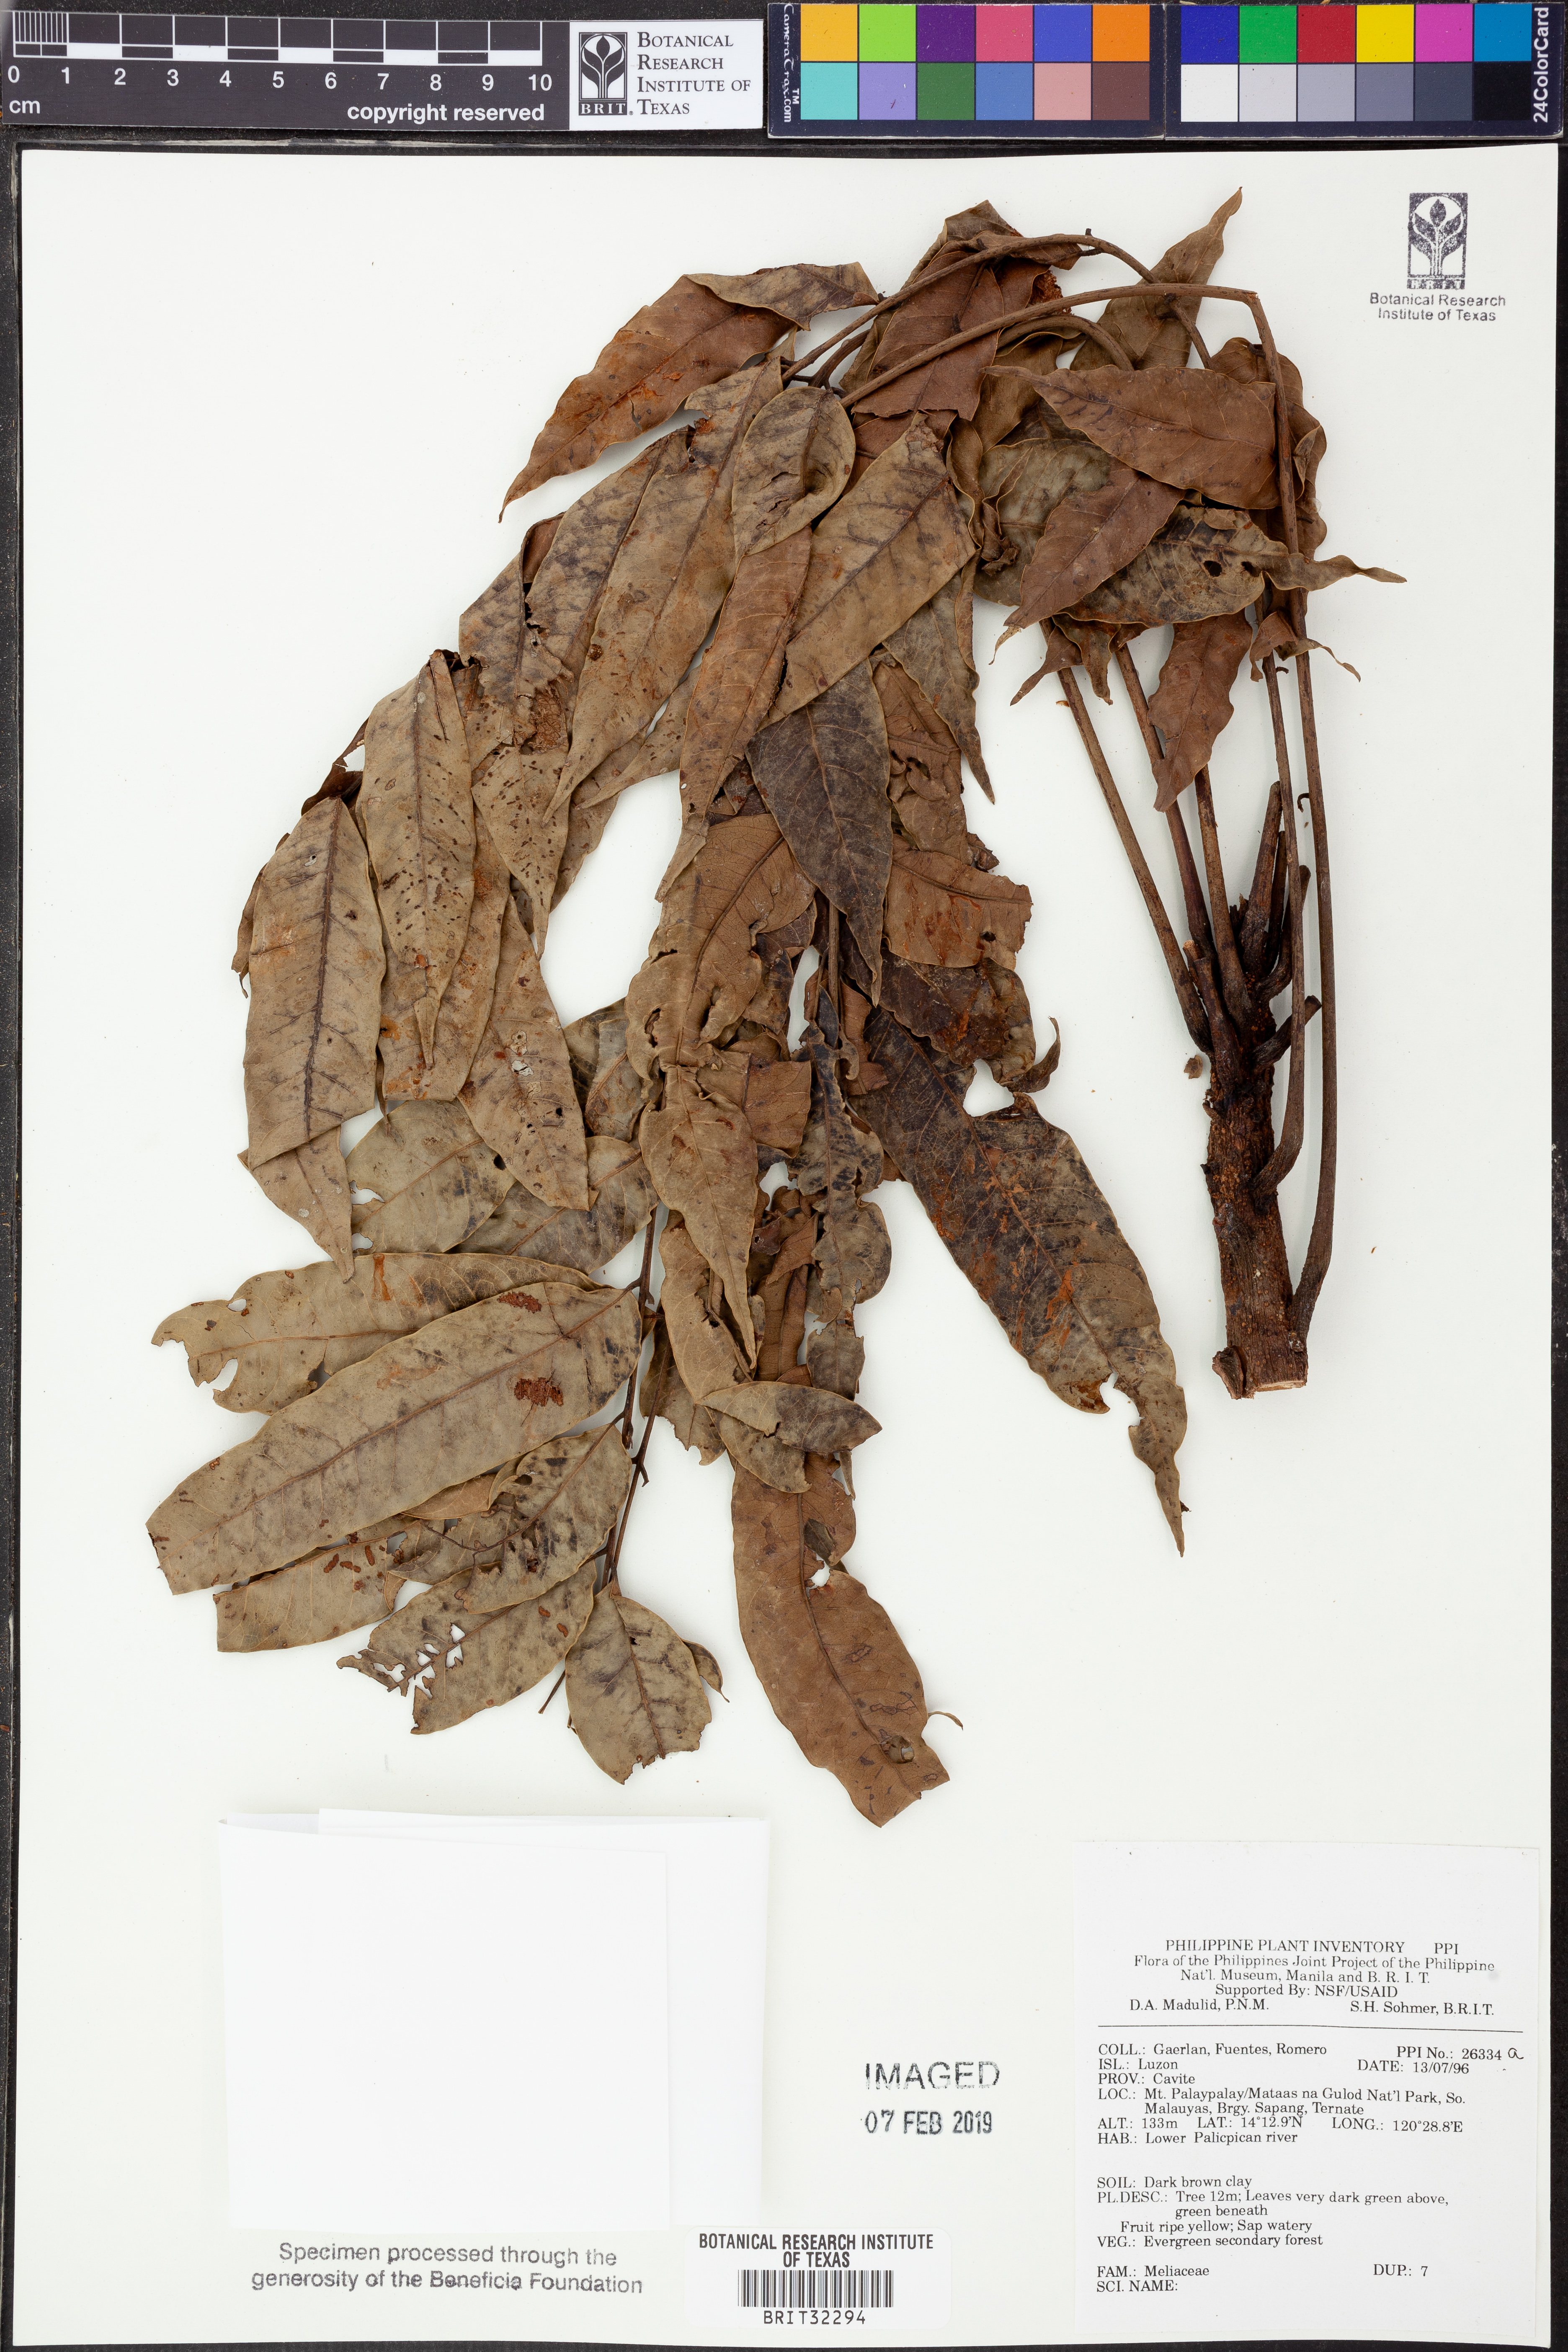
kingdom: Plantae
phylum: Tracheophyta
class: Magnoliopsida
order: Sapindales
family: Meliaceae
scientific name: Meliaceae
